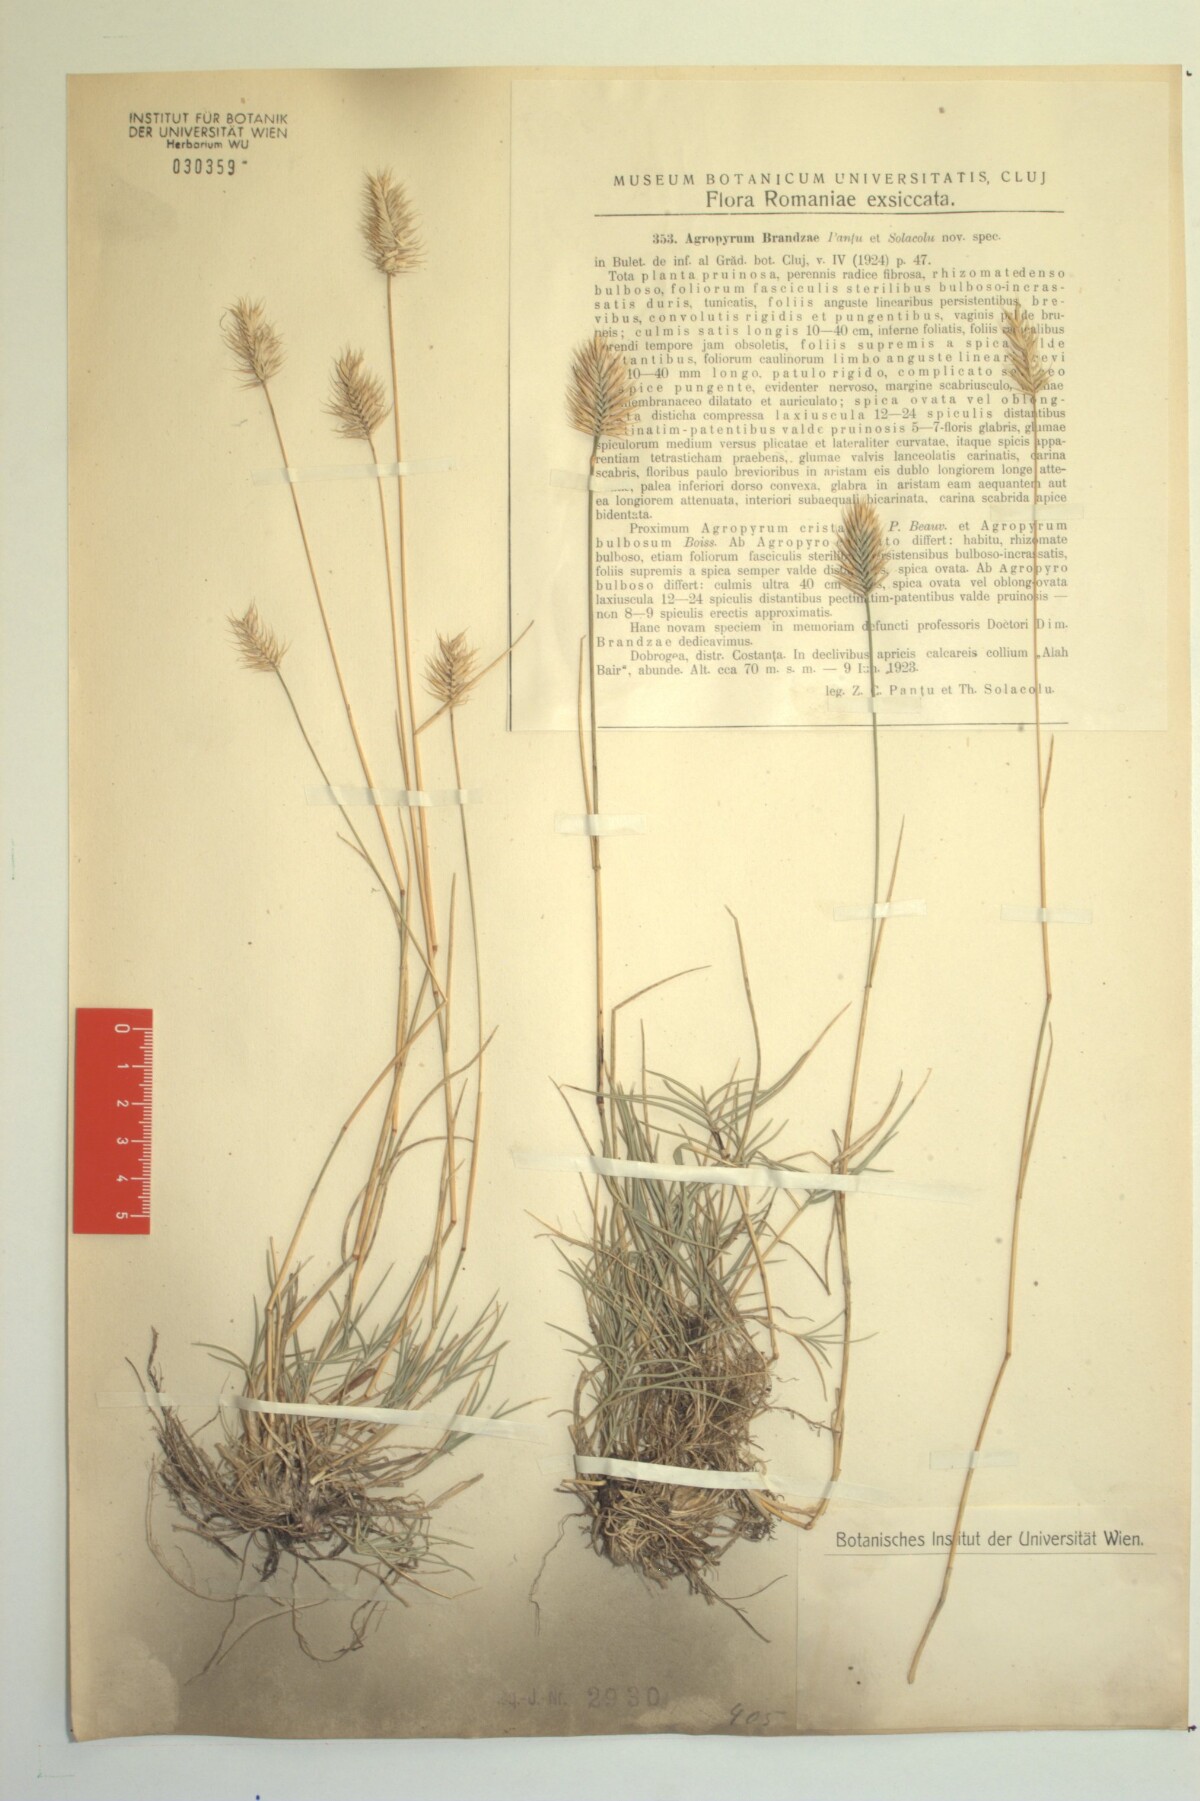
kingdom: Plantae
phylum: Tracheophyta
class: Liliopsida
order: Poales
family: Poaceae
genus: Agropyron
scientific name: Agropyron cristatum
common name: Crested wheatgrass
